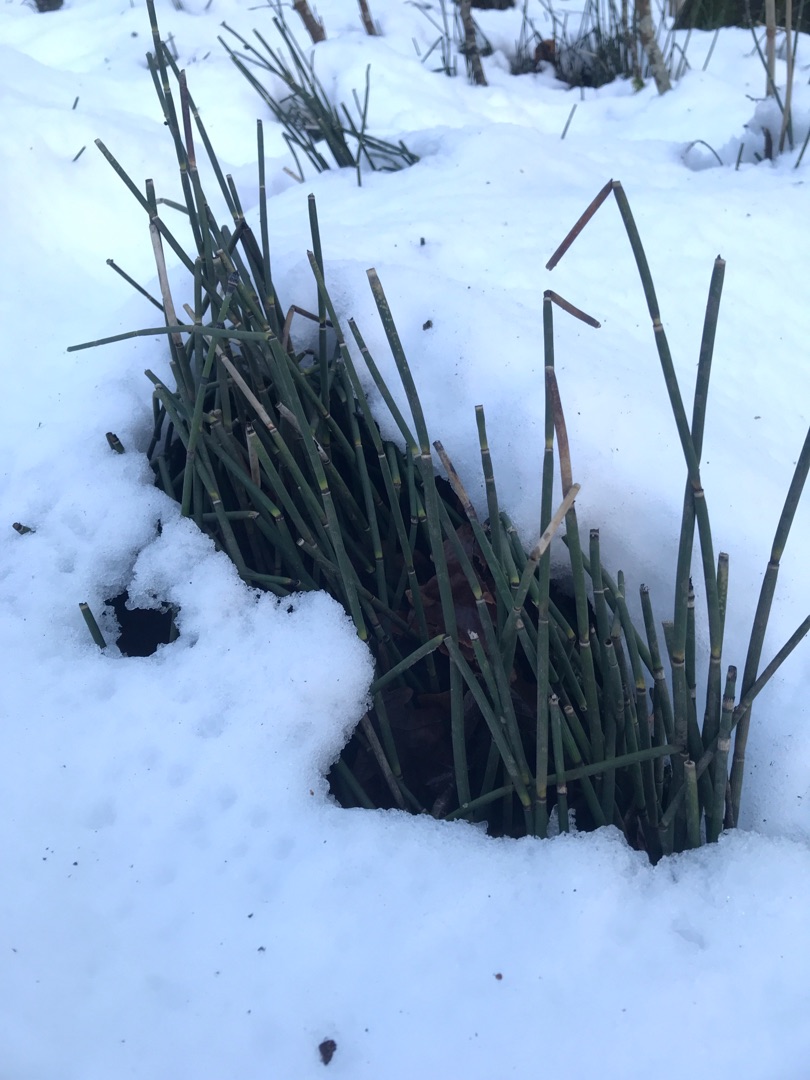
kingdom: Plantae
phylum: Tracheophyta
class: Polypodiopsida
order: Equisetales
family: Equisetaceae
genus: Equisetum
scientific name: Equisetum hyemale
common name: Skavgræs
